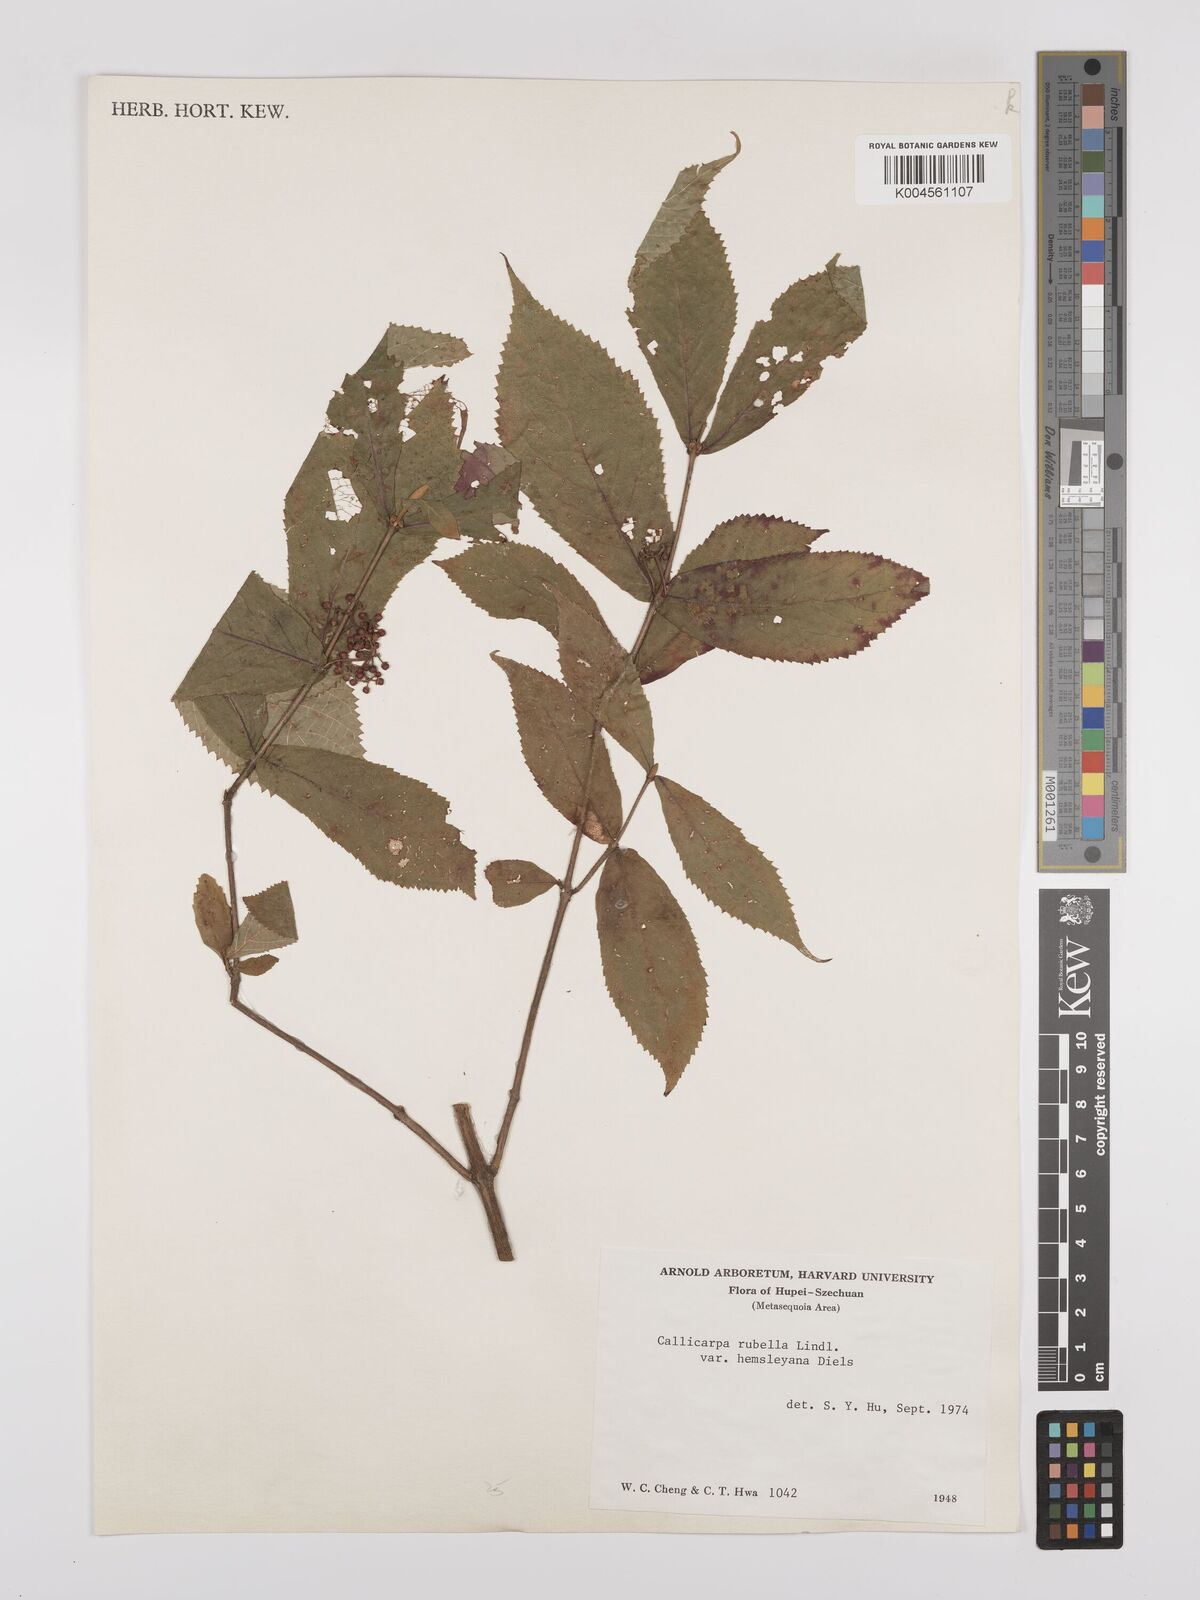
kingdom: Plantae
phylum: Tracheophyta
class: Magnoliopsida
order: Lamiales
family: Lamiaceae
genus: Callicarpa
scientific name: Callicarpa rubella
